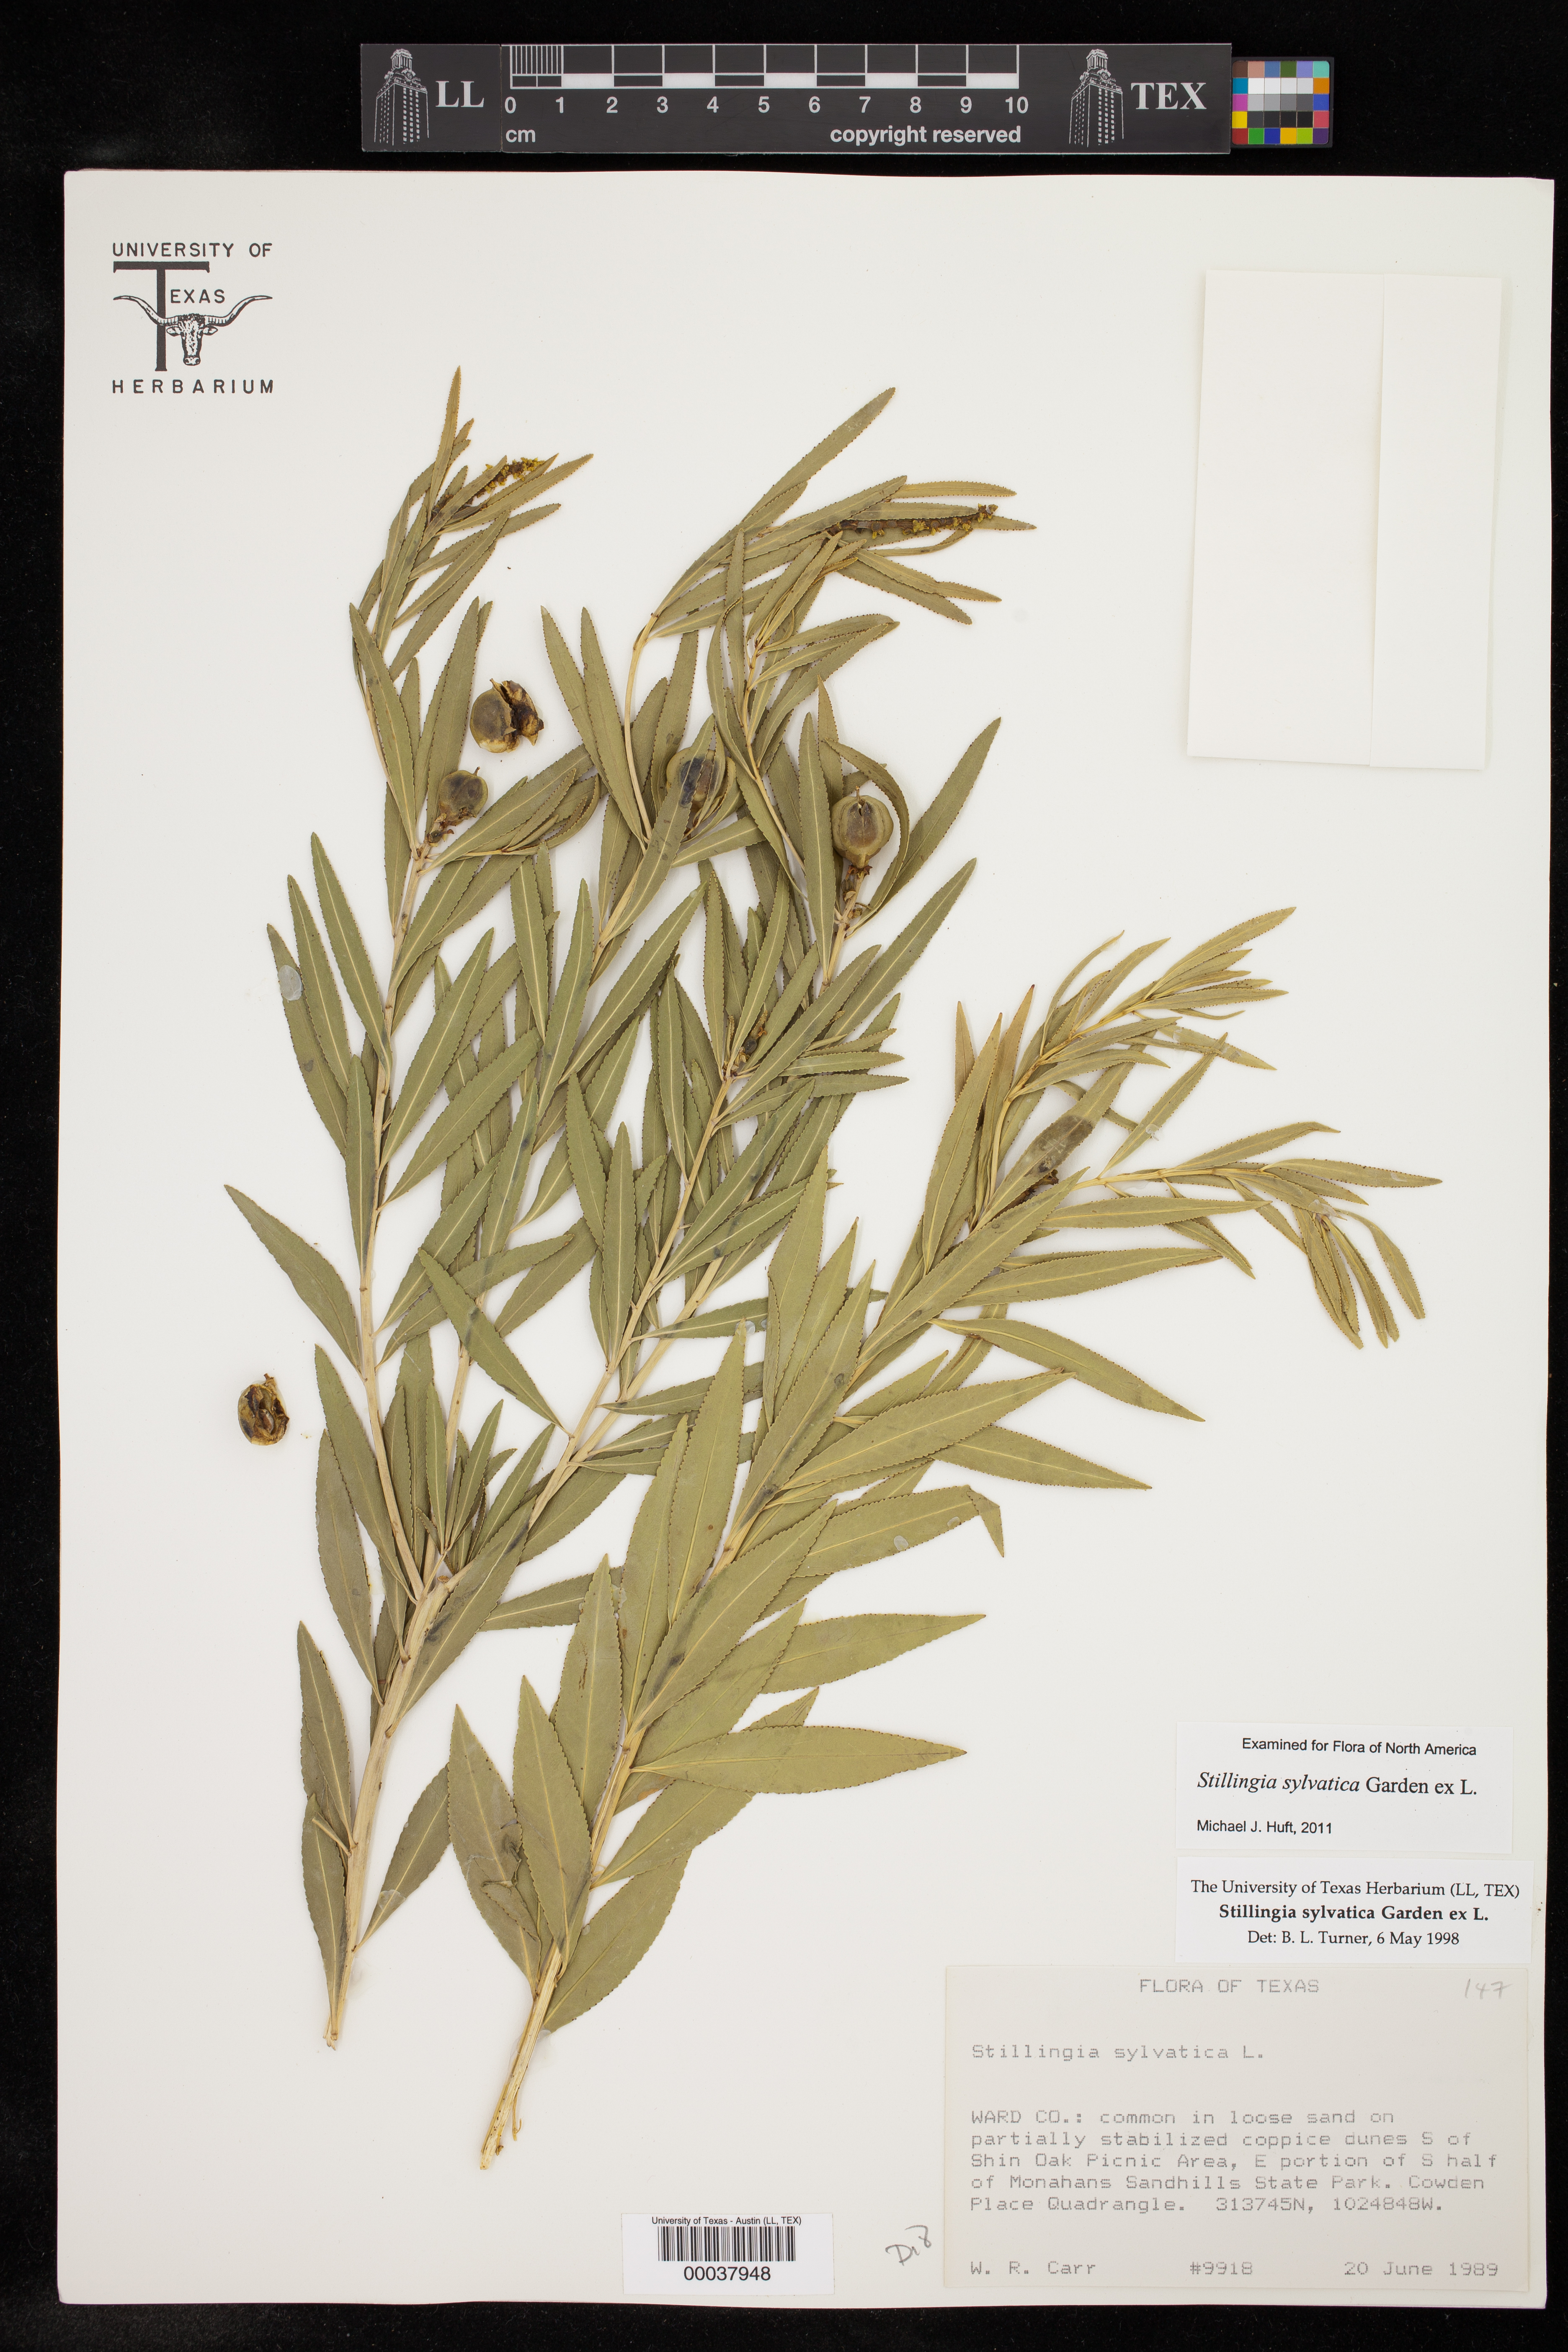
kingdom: Plantae
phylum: Tracheophyta
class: Magnoliopsida
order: Malpighiales
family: Euphorbiaceae
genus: Stillingia
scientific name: Stillingia sylvatica
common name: Queen's-delight
